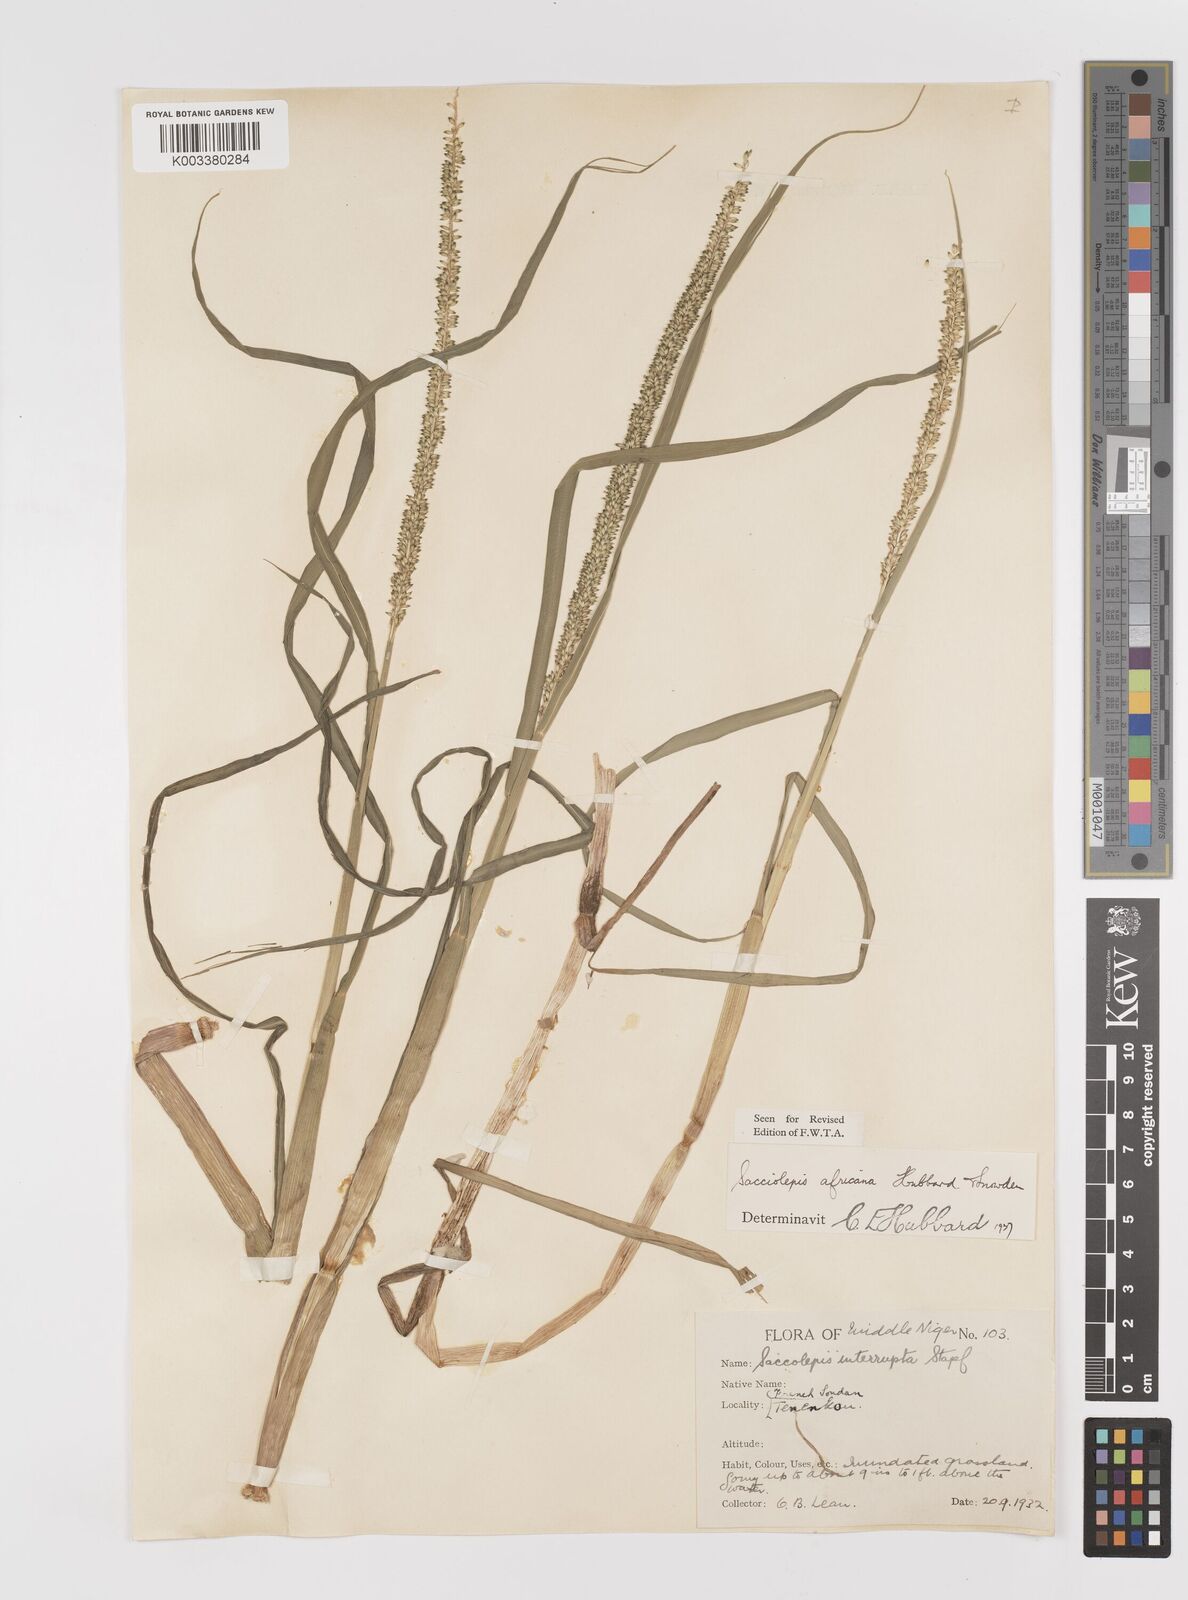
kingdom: Plantae
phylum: Tracheophyta
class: Liliopsida
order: Poales
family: Poaceae
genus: Sacciolepis
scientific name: Sacciolepis africana
